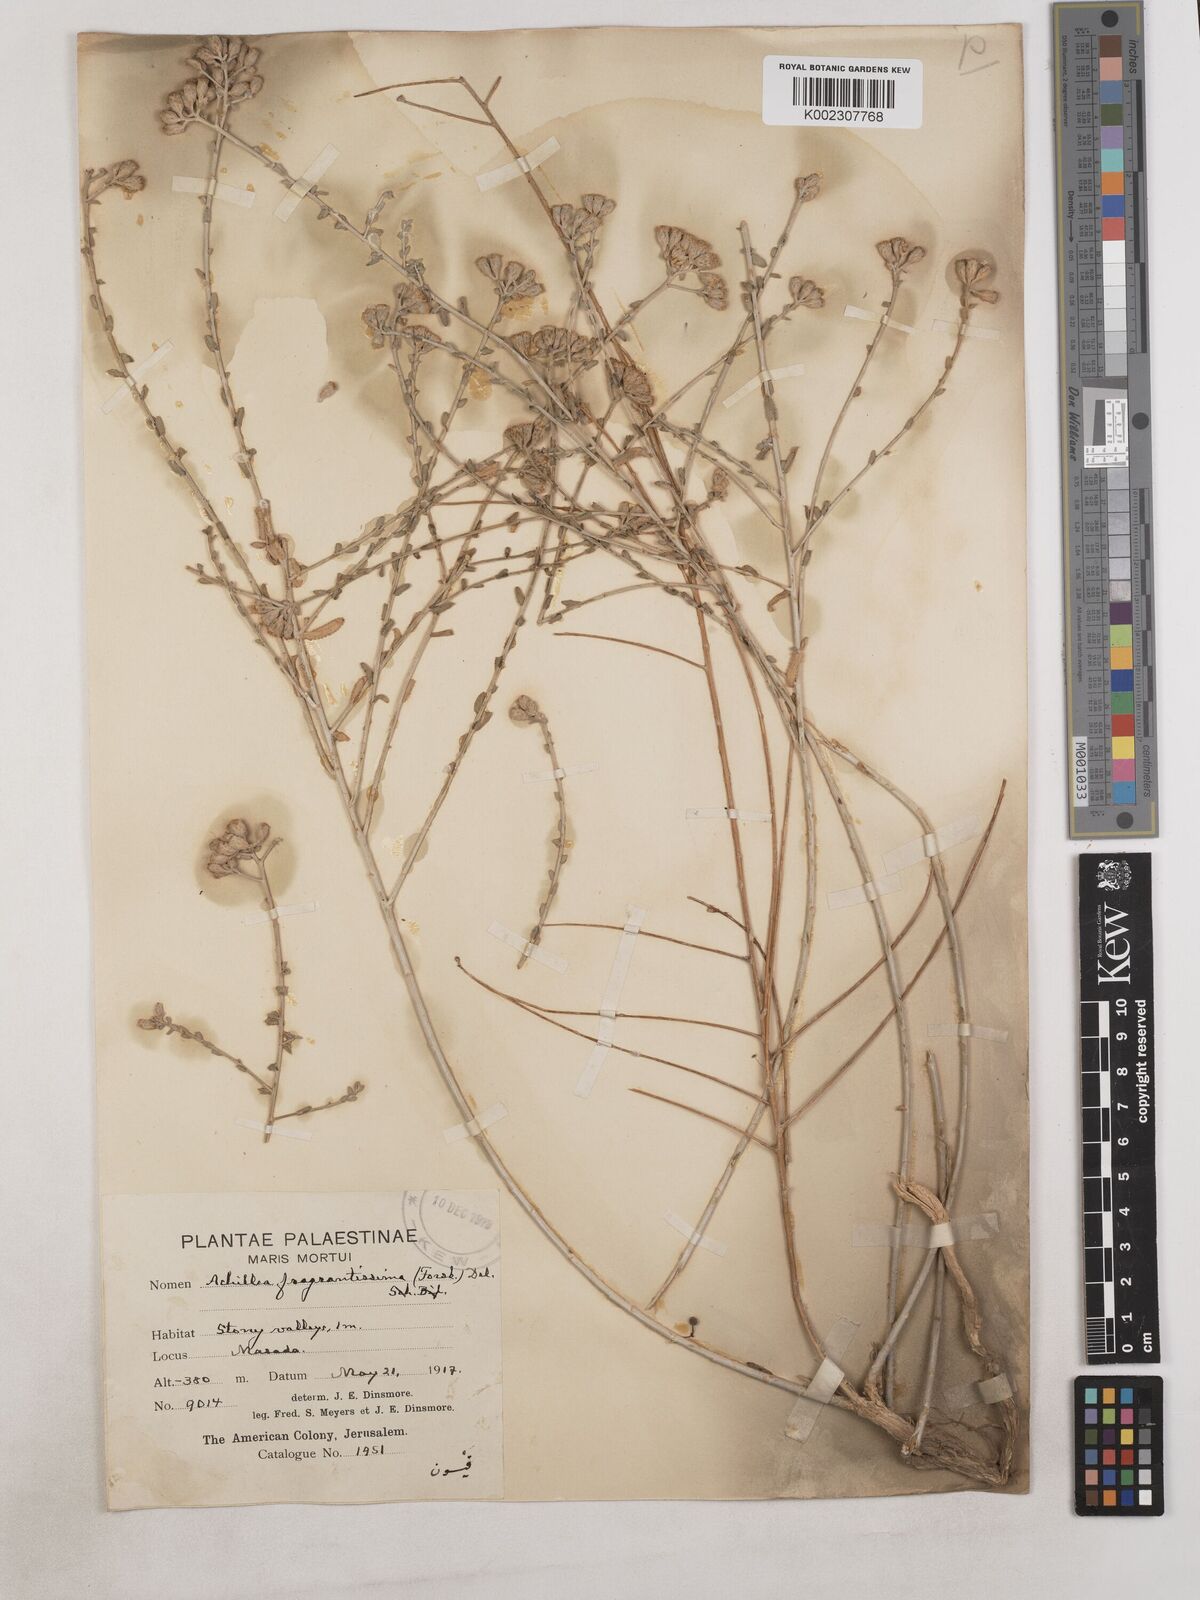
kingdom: Plantae
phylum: Tracheophyta
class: Magnoliopsida
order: Asterales
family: Asteraceae
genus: Achillea
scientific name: Achillea fragrantissima
